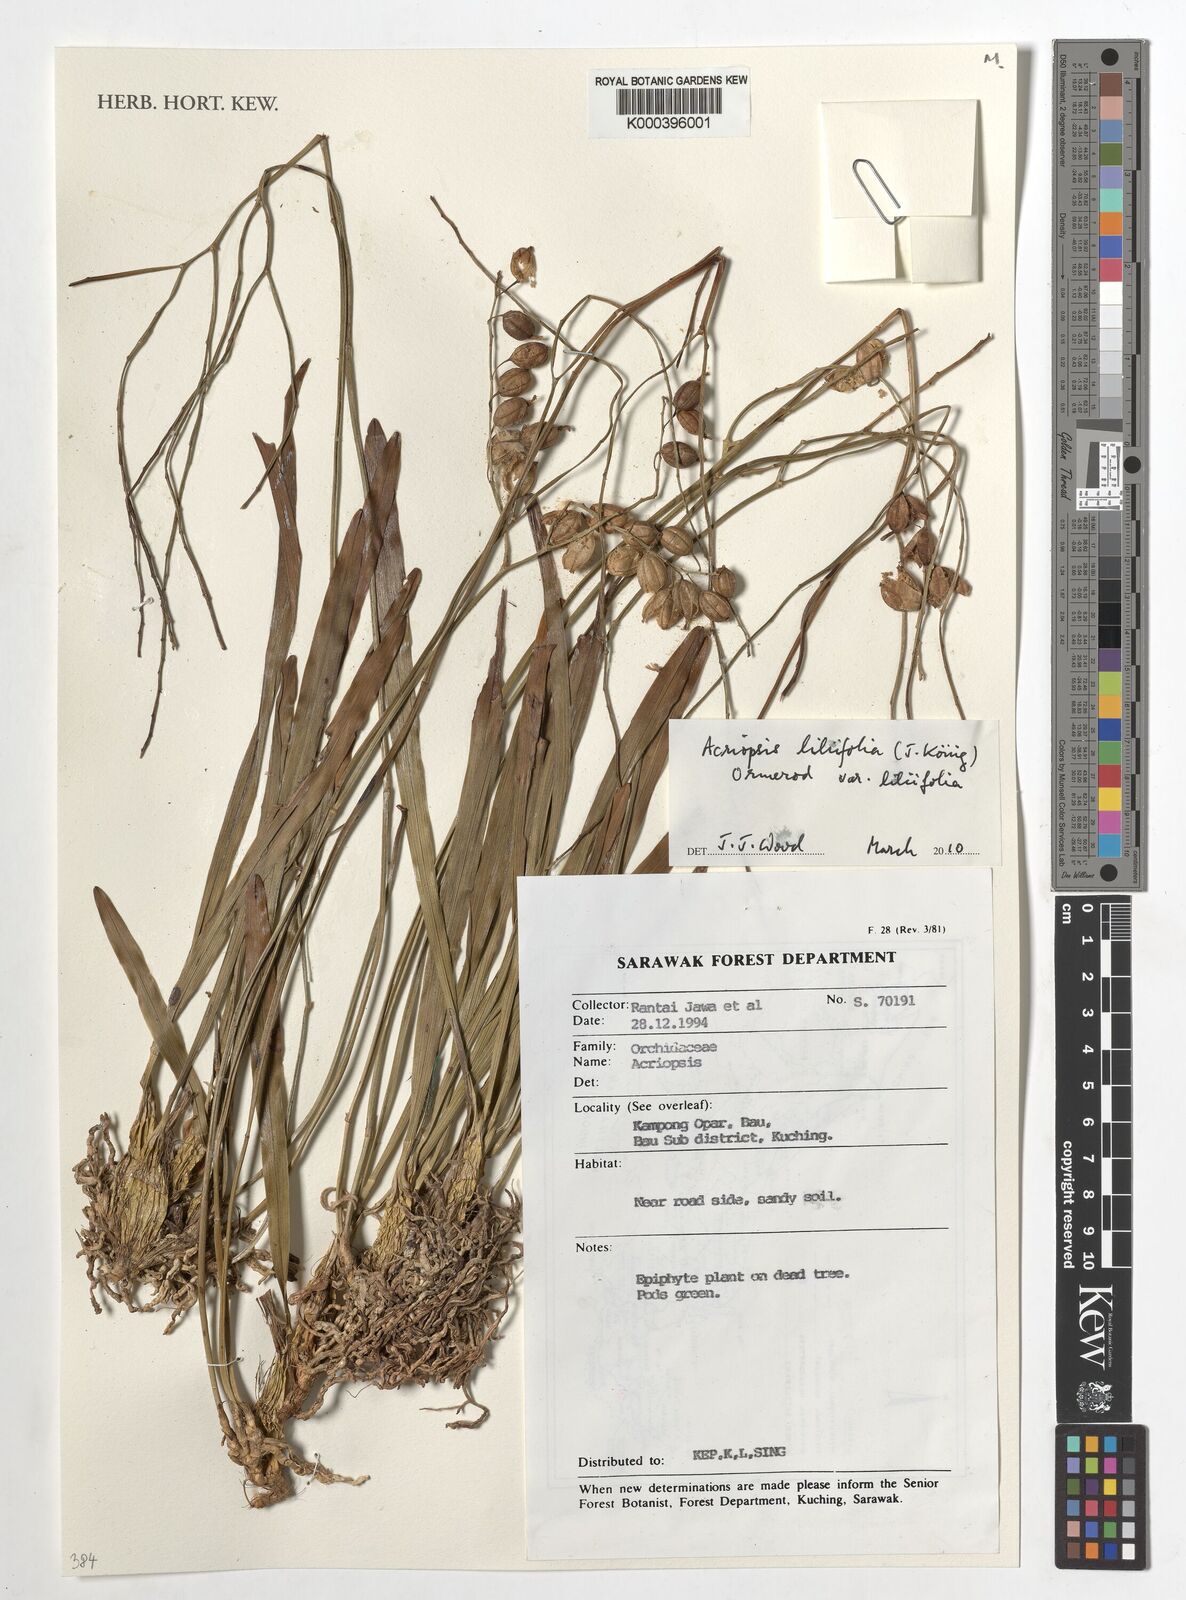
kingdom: Plantae
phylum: Tracheophyta
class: Liliopsida
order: Asparagales
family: Orchidaceae
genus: Acriopsis
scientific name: Acriopsis
